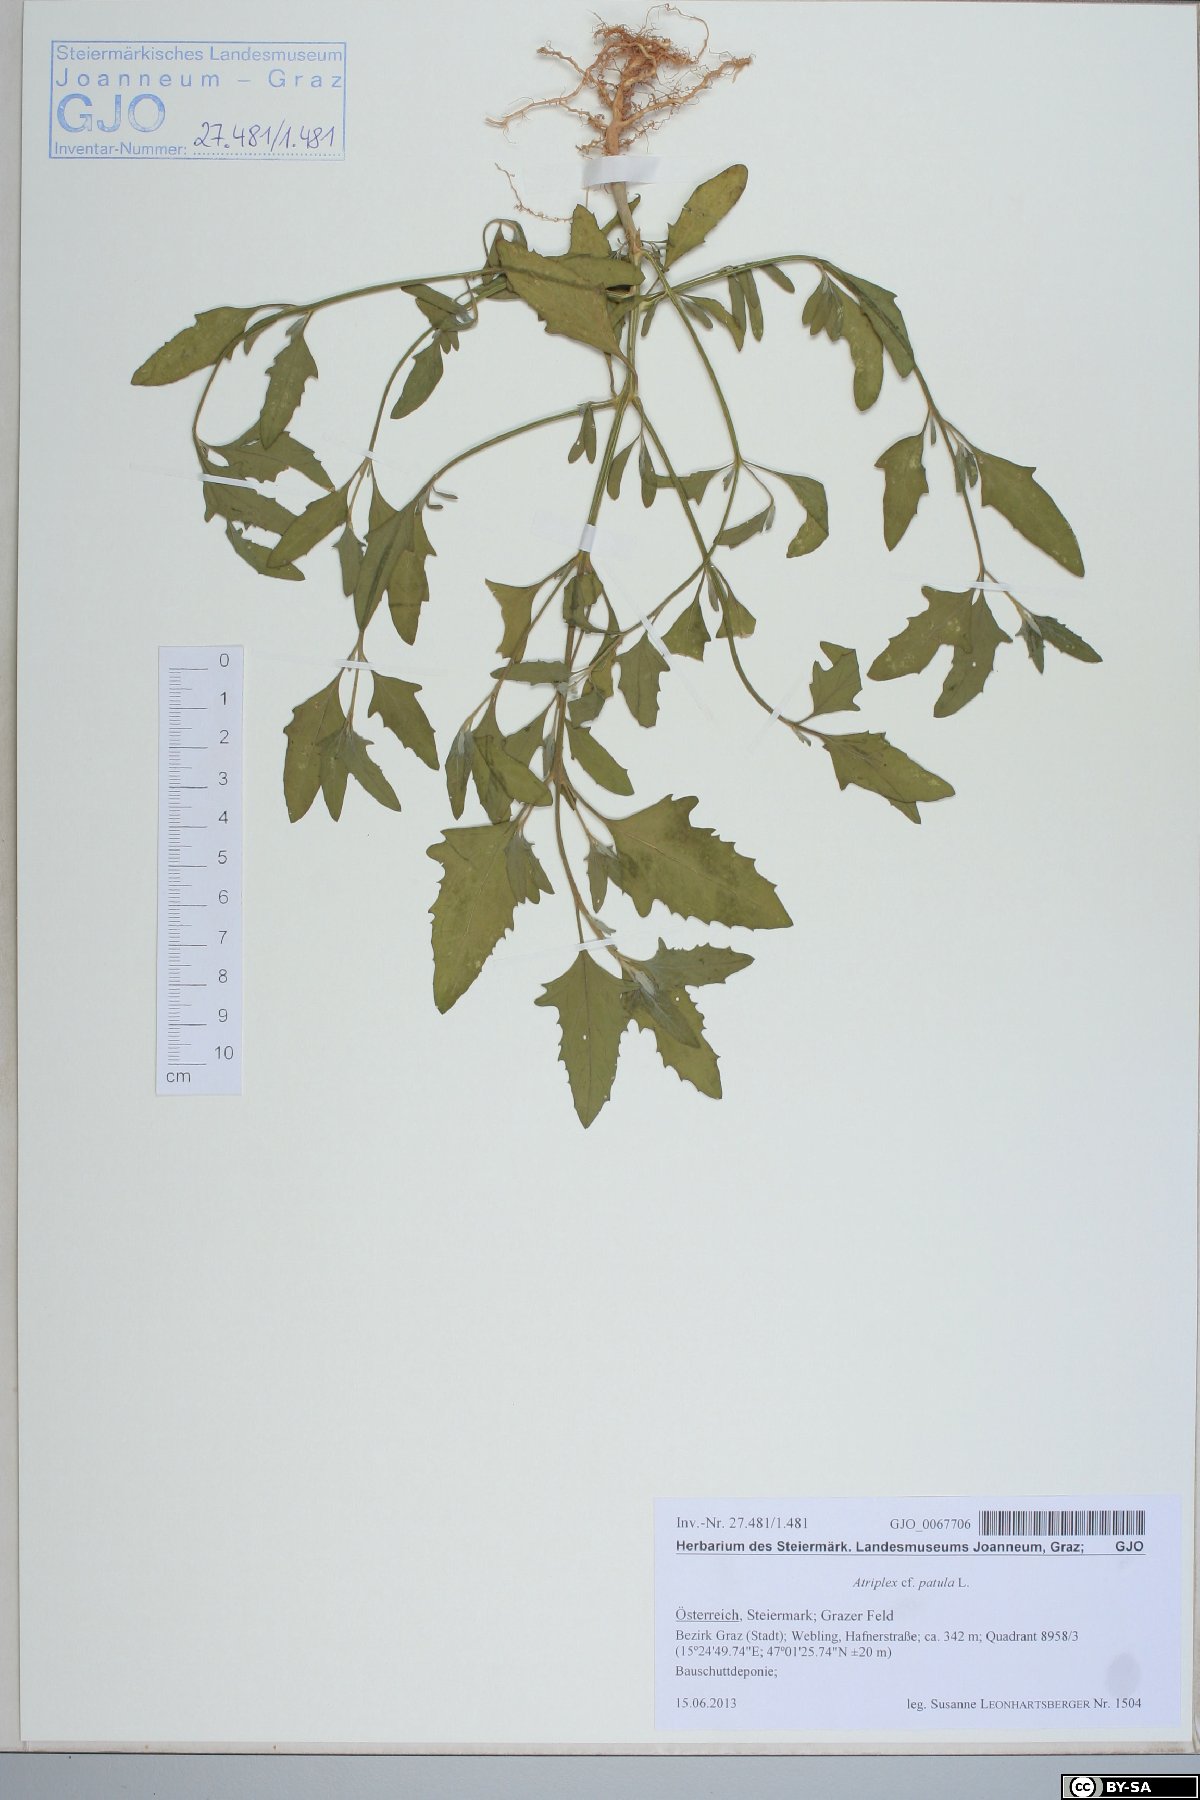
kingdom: Plantae
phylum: Tracheophyta
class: Magnoliopsida
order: Caryophyllales
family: Amaranthaceae
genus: Atriplex
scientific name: Atriplex patula
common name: Common orache
